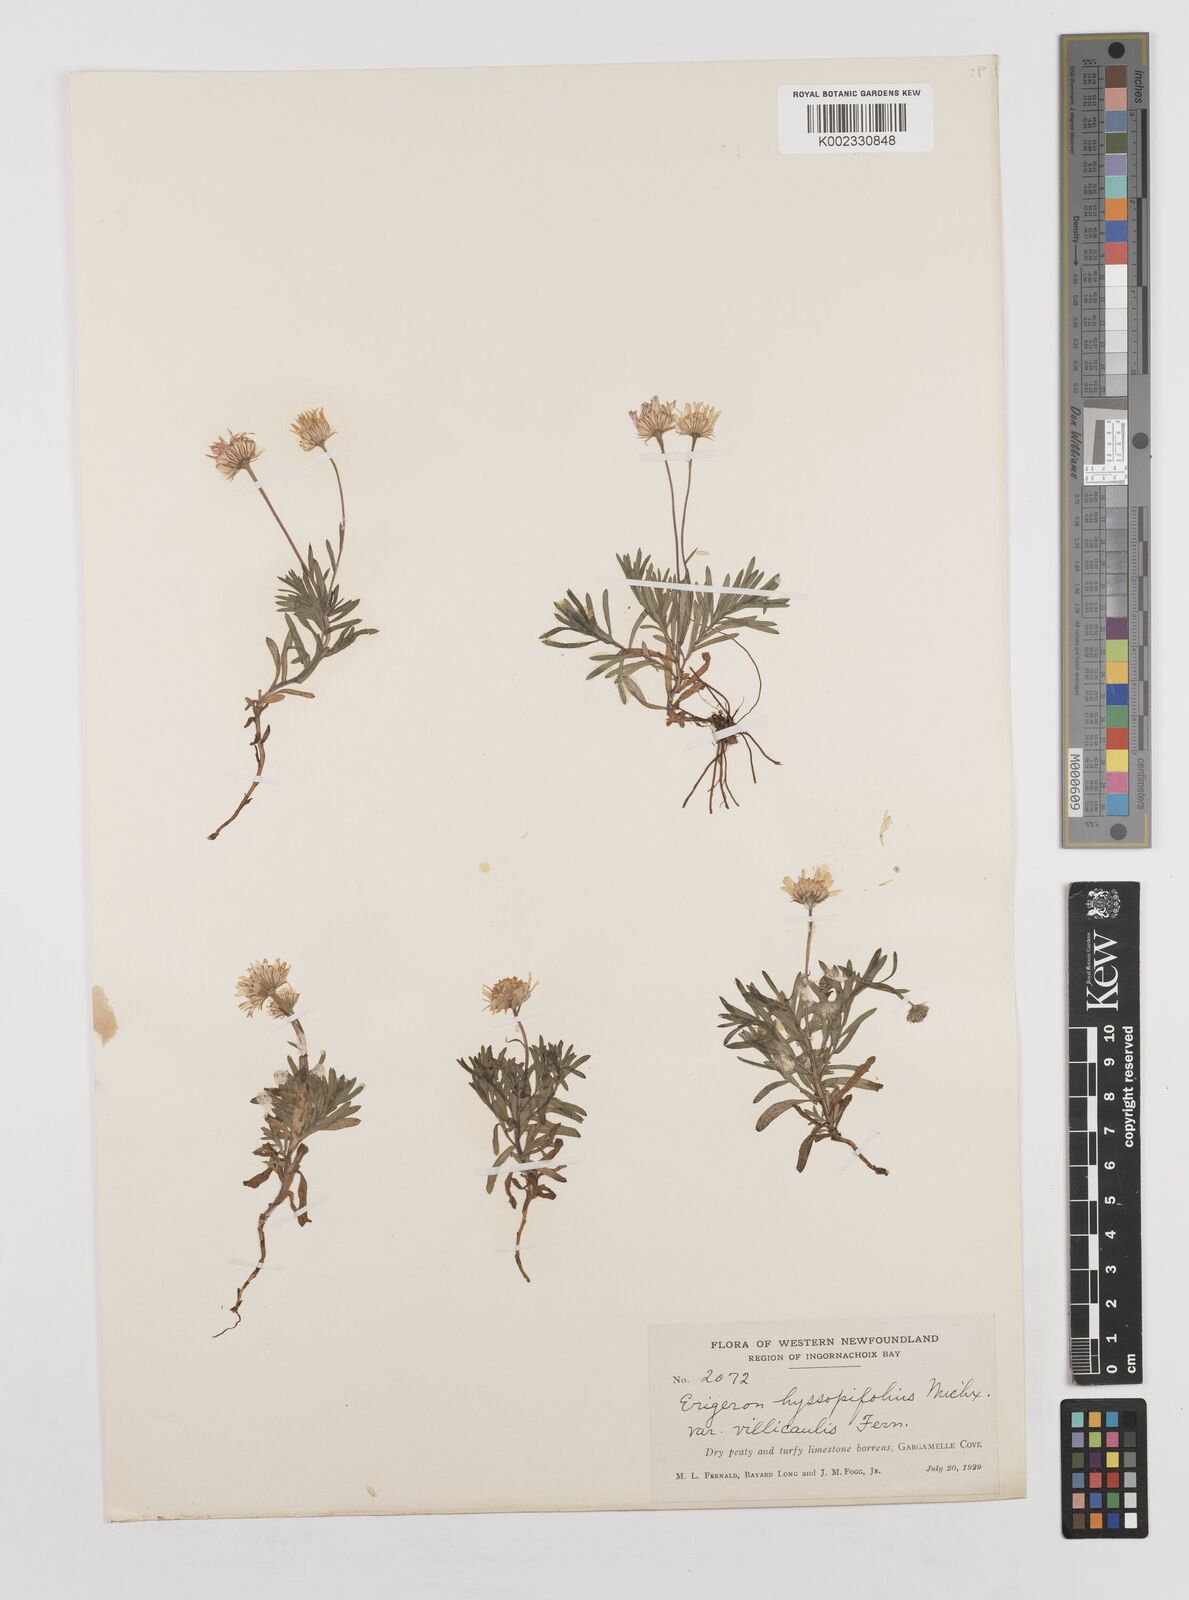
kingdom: Plantae
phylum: Tracheophyta
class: Magnoliopsida
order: Asterales
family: Asteraceae
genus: Erigeron
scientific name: Erigeron hyssopifolius
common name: Daisy fleabane
